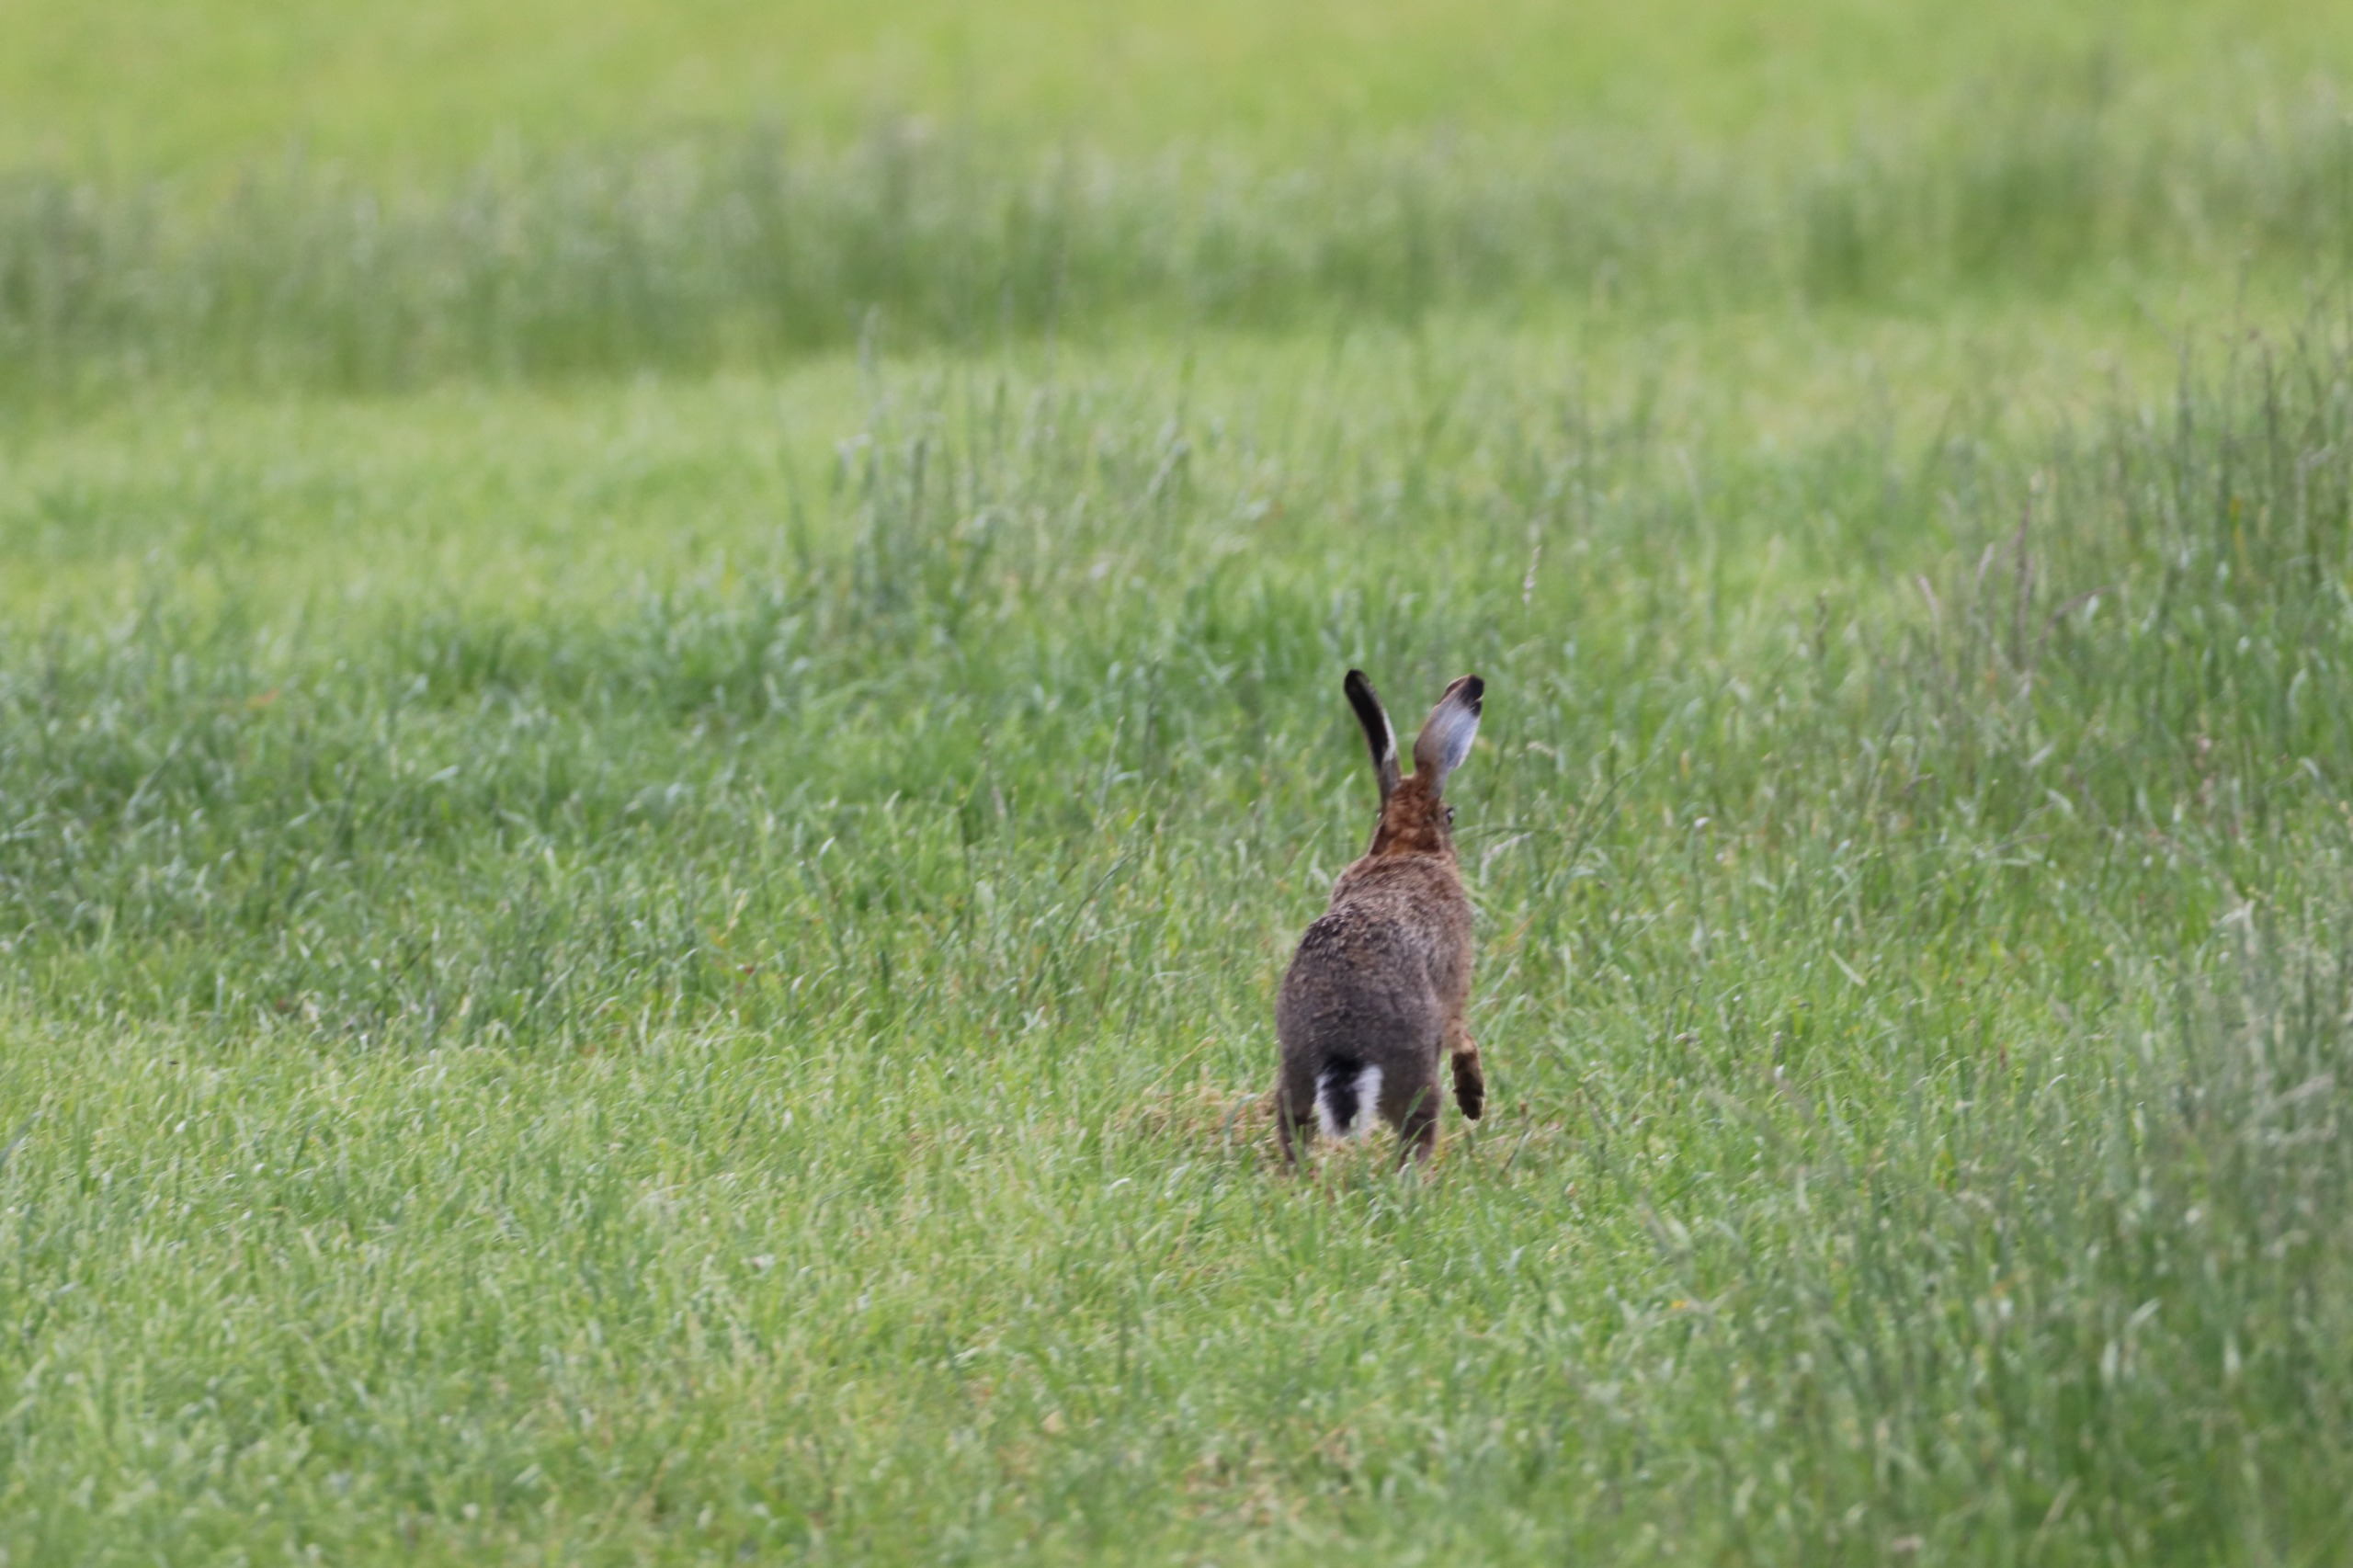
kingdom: Animalia
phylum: Chordata
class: Mammalia
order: Lagomorpha
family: Leporidae
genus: Lepus
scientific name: Lepus europaeus
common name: Hare
